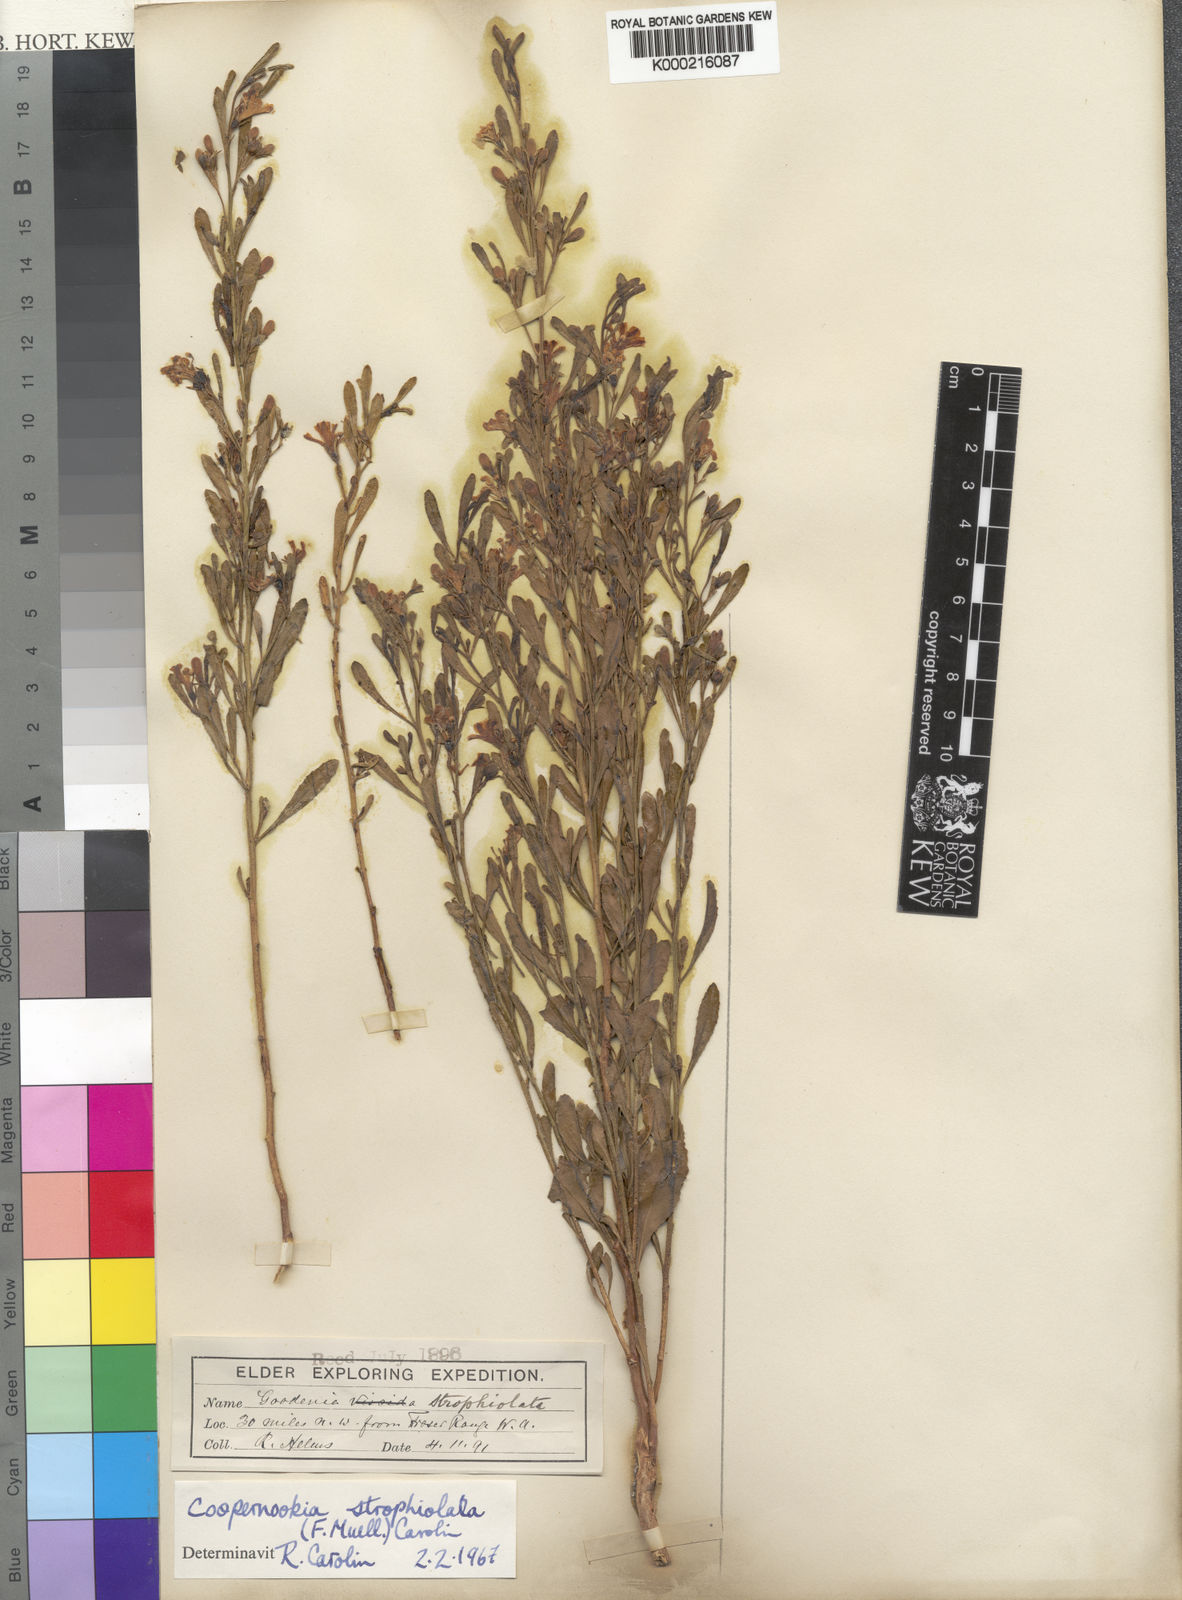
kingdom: Plantae
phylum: Tracheophyta
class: Magnoliopsida
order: Asterales
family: Goodeniaceae
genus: Goodenia
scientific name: Goodenia strophiolata
